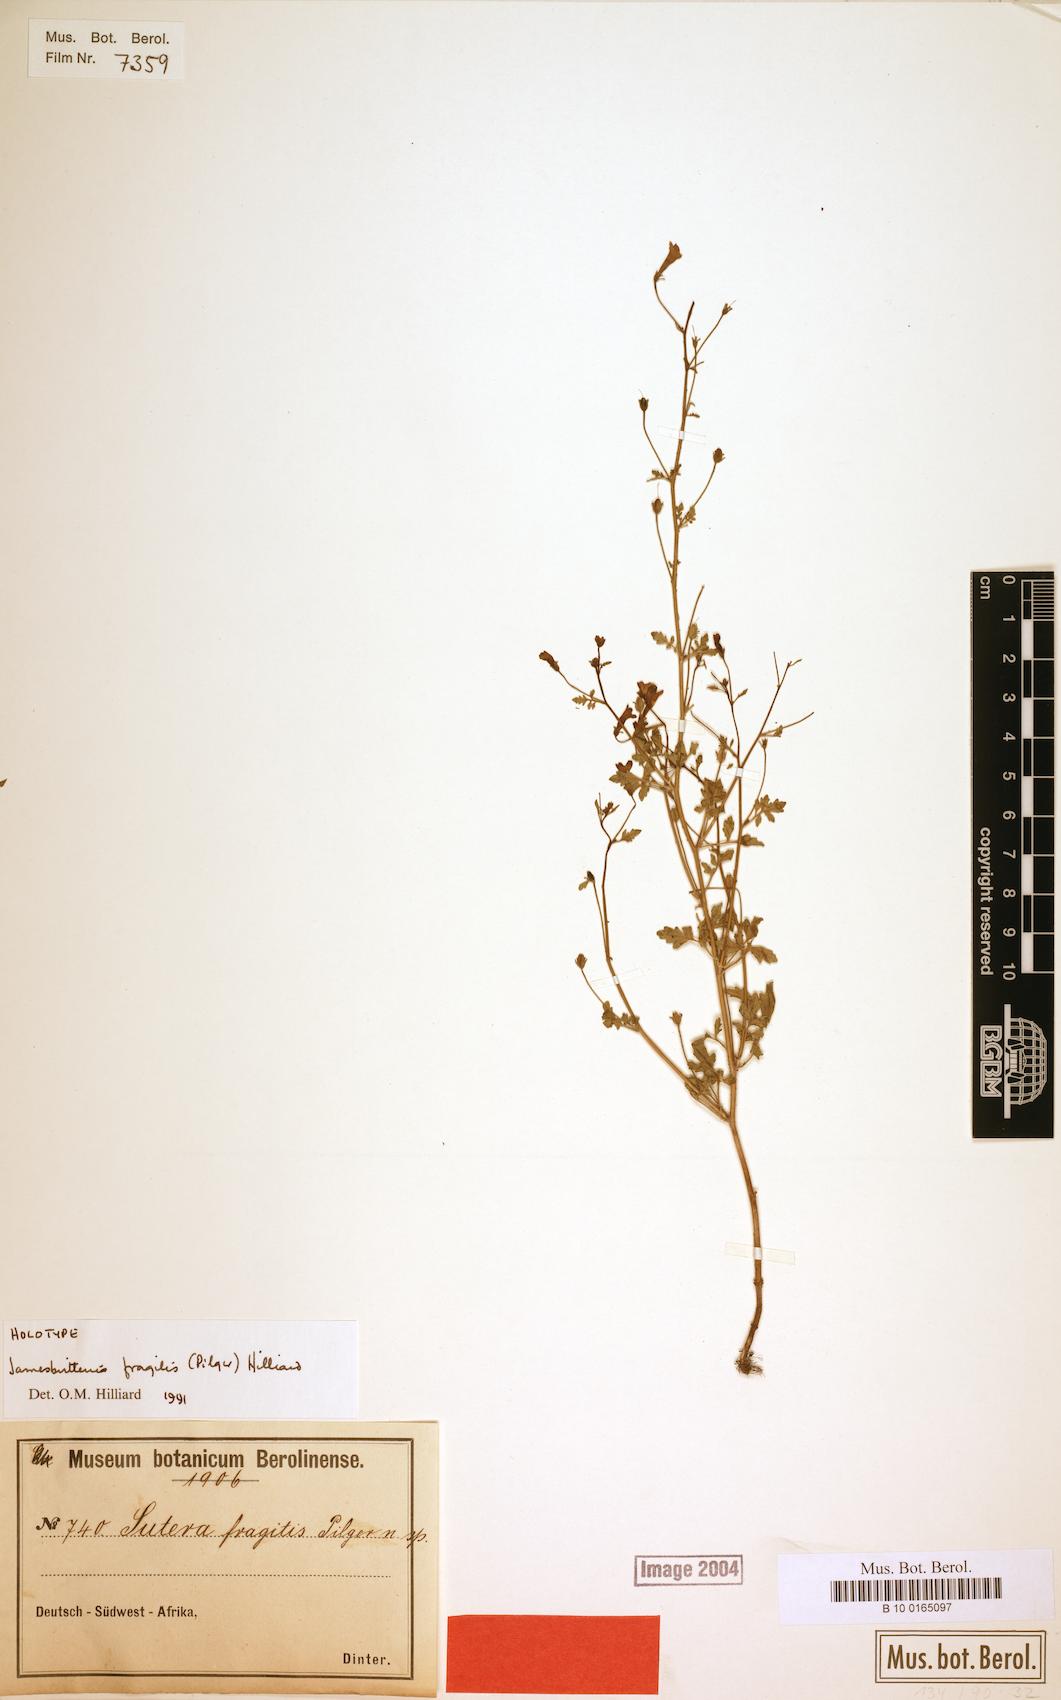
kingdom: Plantae
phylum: Tracheophyta
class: Magnoliopsida
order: Lamiales
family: Scrophulariaceae
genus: Jamesbrittenia
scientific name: Jamesbrittenia fragilis
